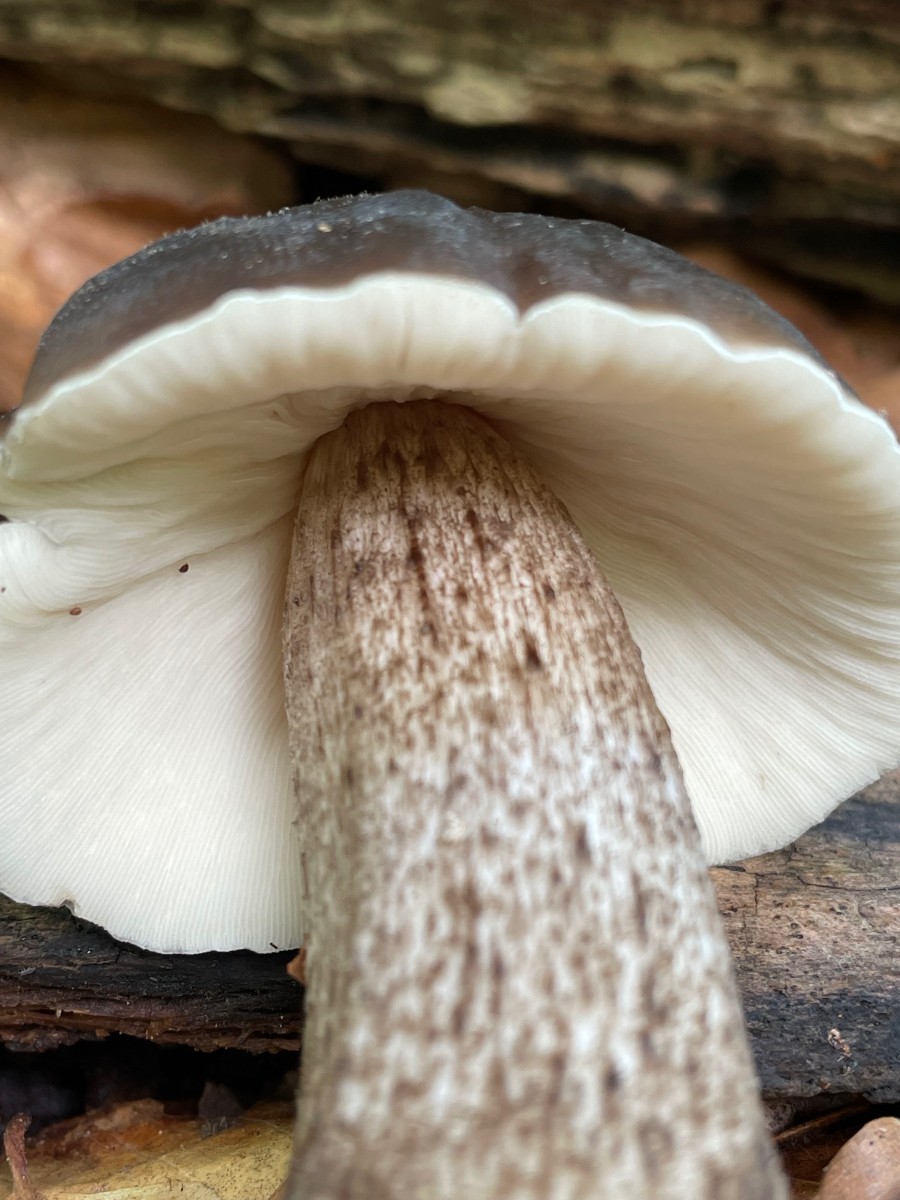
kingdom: Fungi
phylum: Basidiomycota
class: Agaricomycetes
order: Agaricales
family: Pluteaceae
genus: Pluteus
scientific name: Pluteus cervinus
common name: sodfarvet skærmhat
